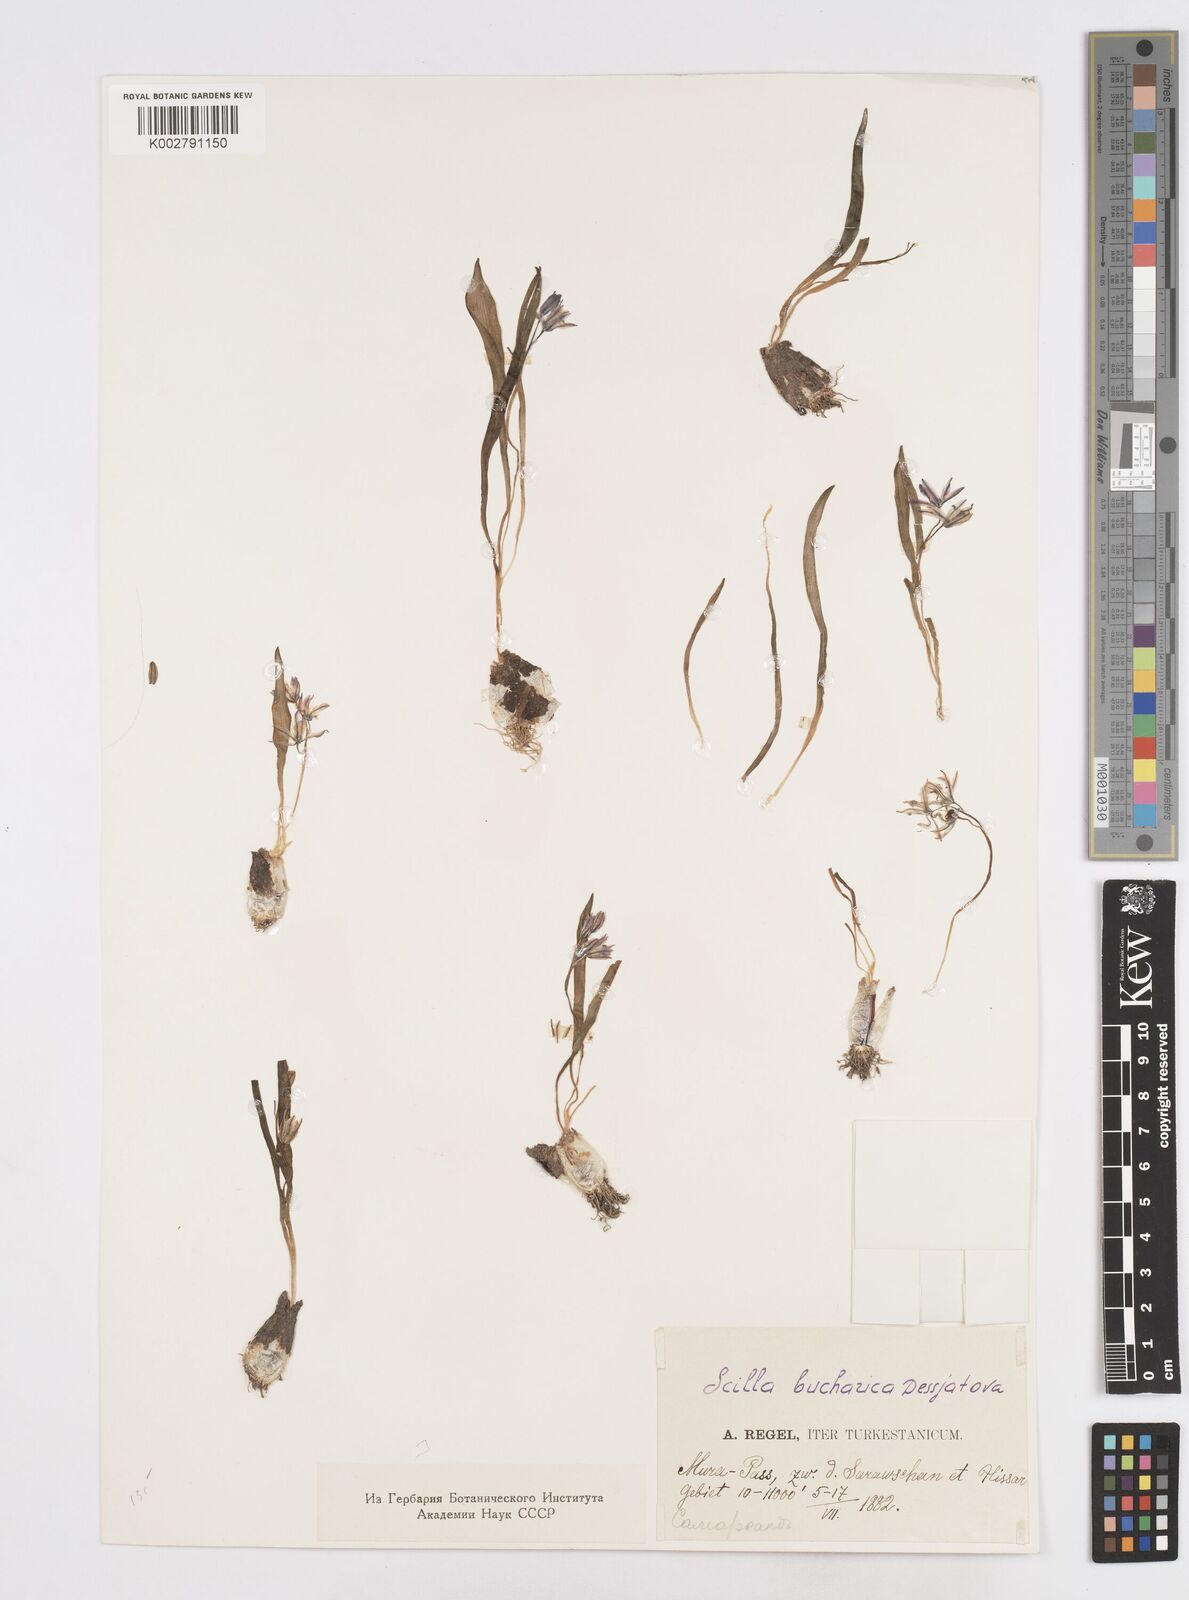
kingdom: Plantae
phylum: Tracheophyta
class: Liliopsida
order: Asparagales
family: Asparagaceae
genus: Fessia
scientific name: Fessia puschkinioides
